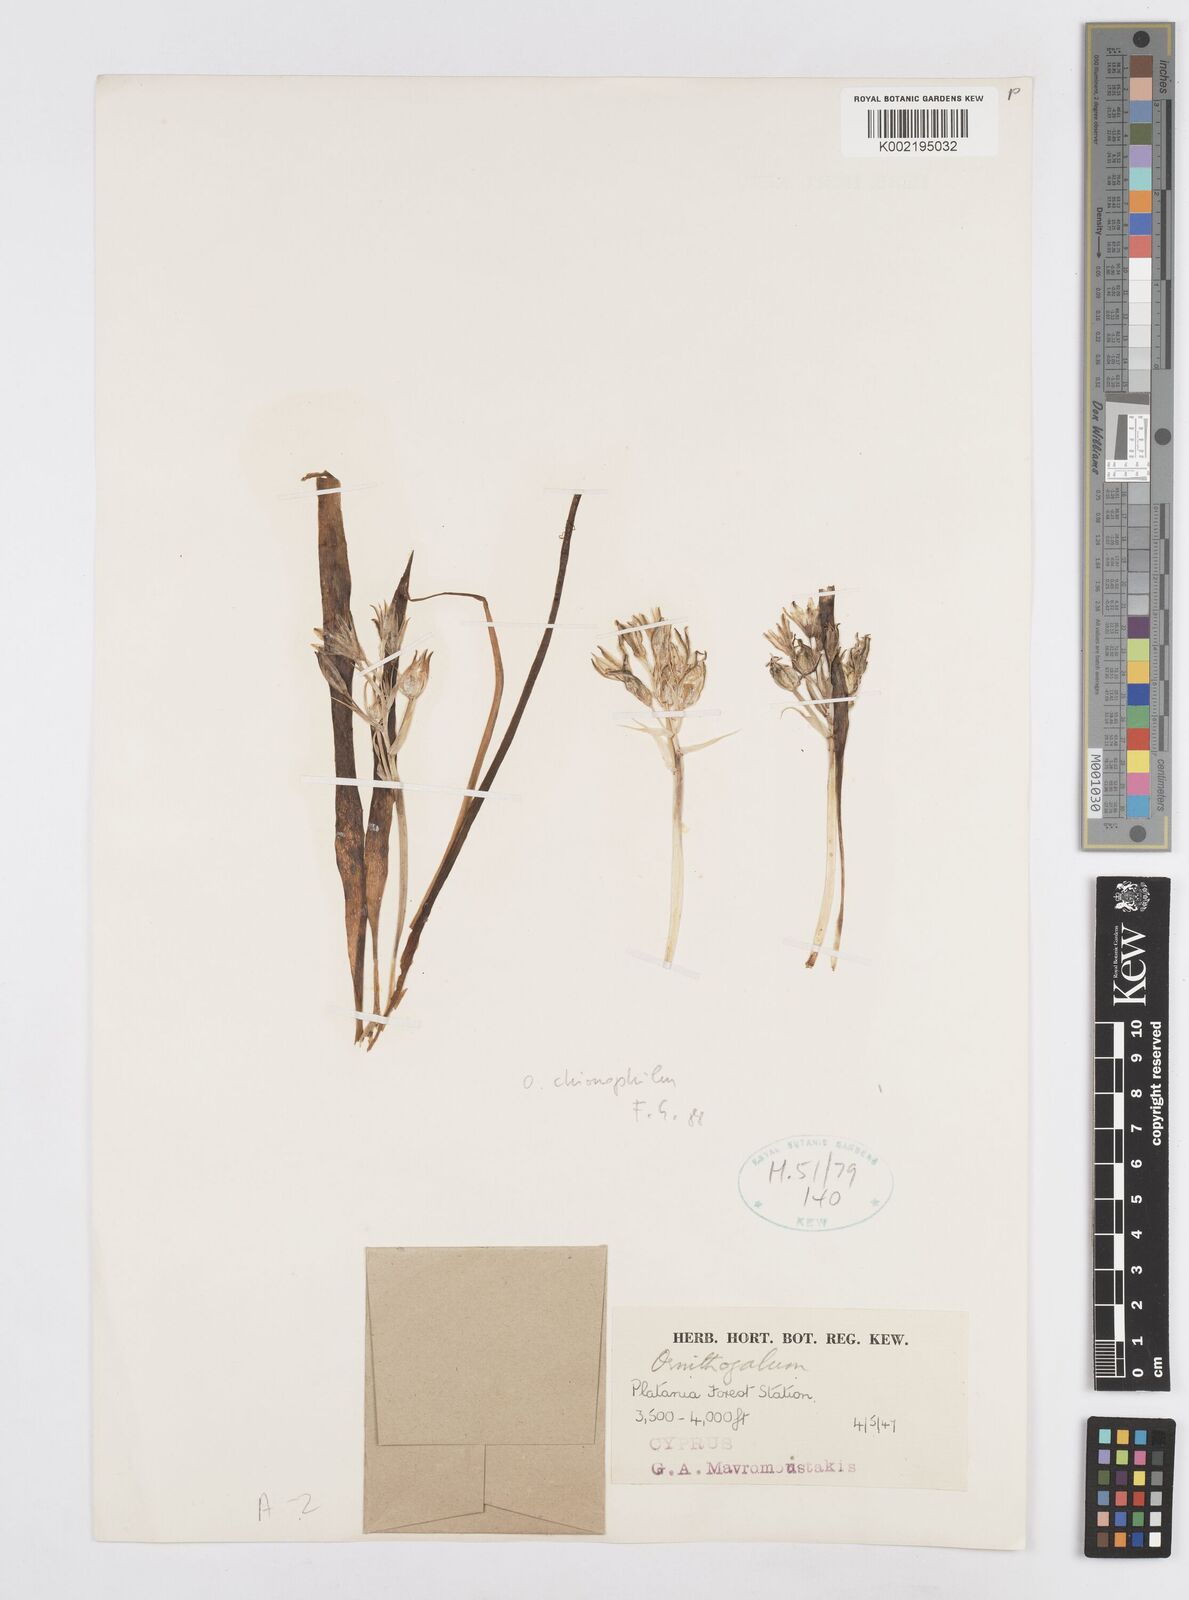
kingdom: Plantae
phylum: Tracheophyta
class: Liliopsida
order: Asparagales
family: Asparagaceae
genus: Ornithogalum
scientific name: Ornithogalum chionophilum
